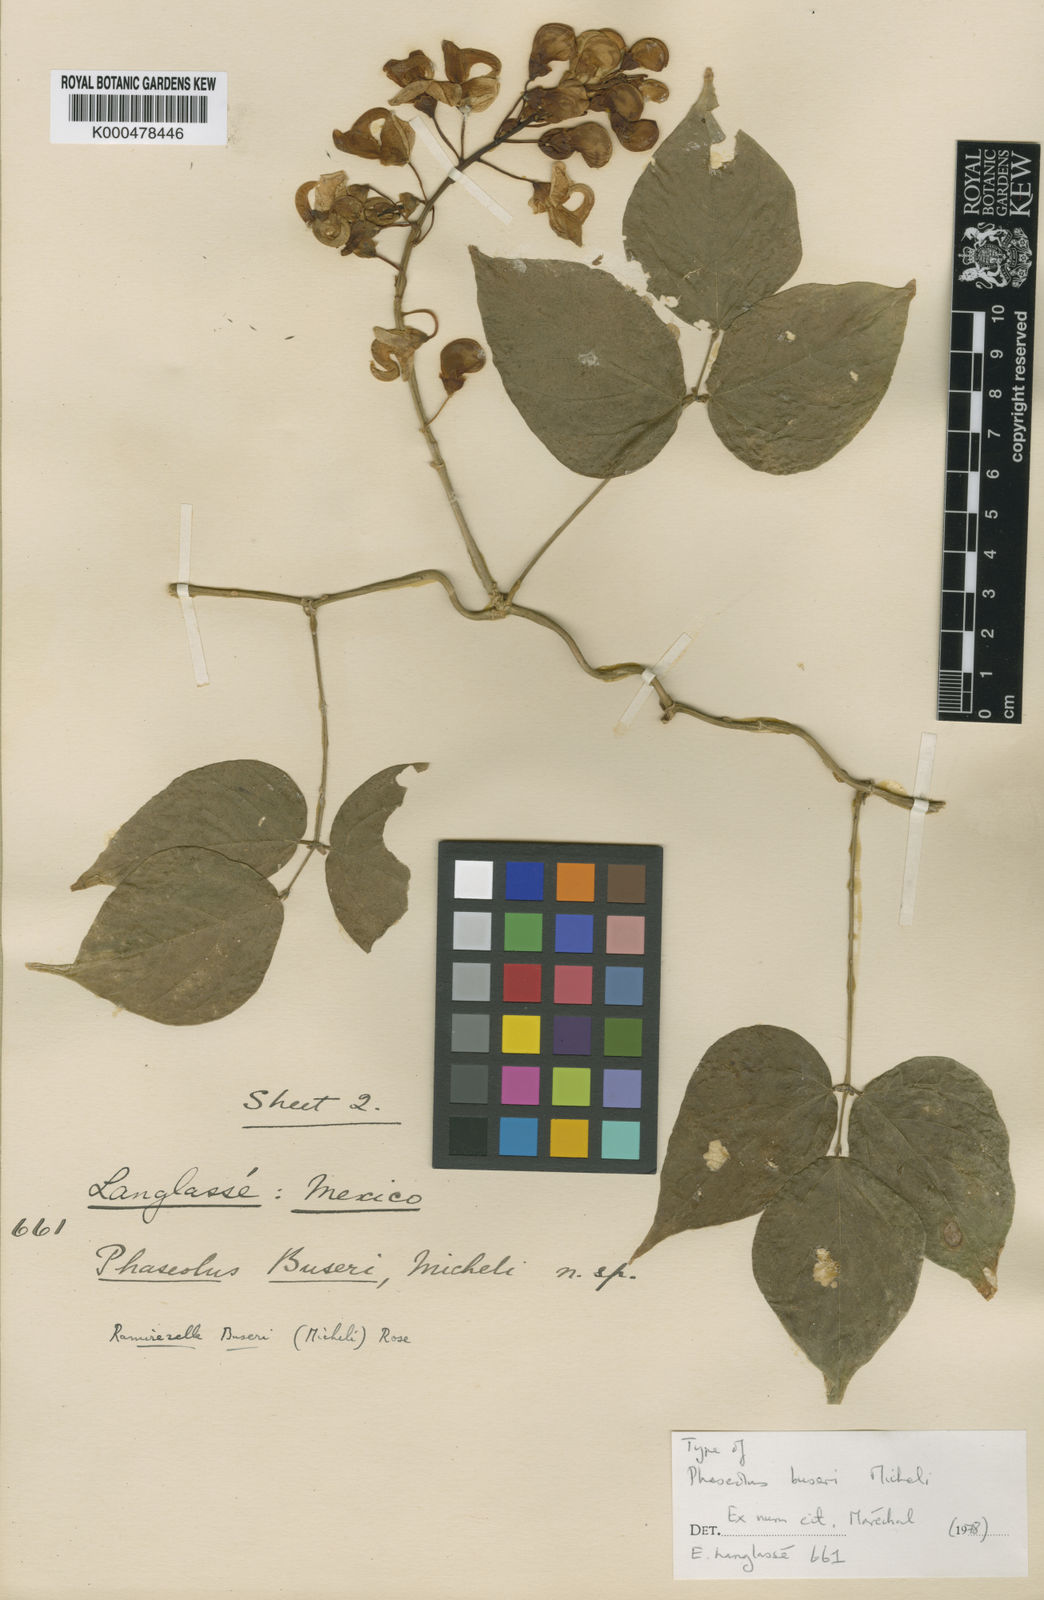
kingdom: Plantae
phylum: Tracheophyta
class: Magnoliopsida
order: Fabales
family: Fabaceae
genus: Ramirezella
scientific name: Ramirezella strobilophora
